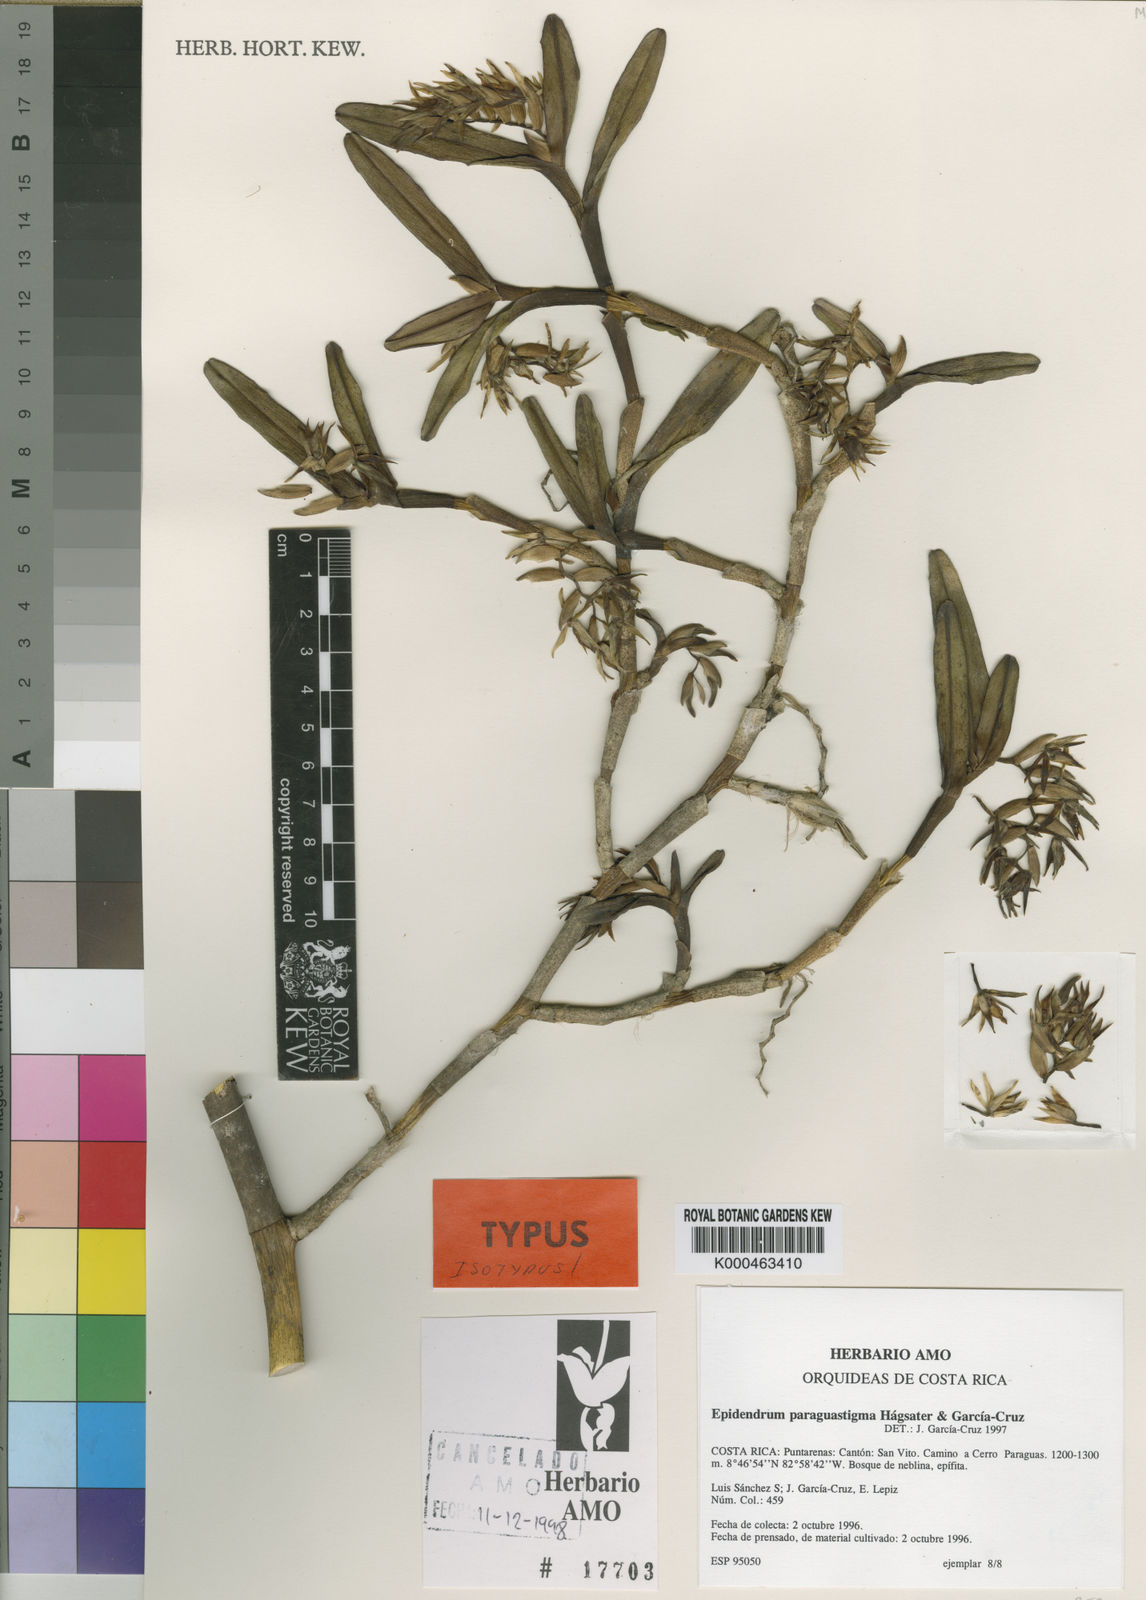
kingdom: Plantae
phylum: Tracheophyta
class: Liliopsida
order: Asparagales
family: Orchidaceae
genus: Epidendrum
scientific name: Epidendrum
